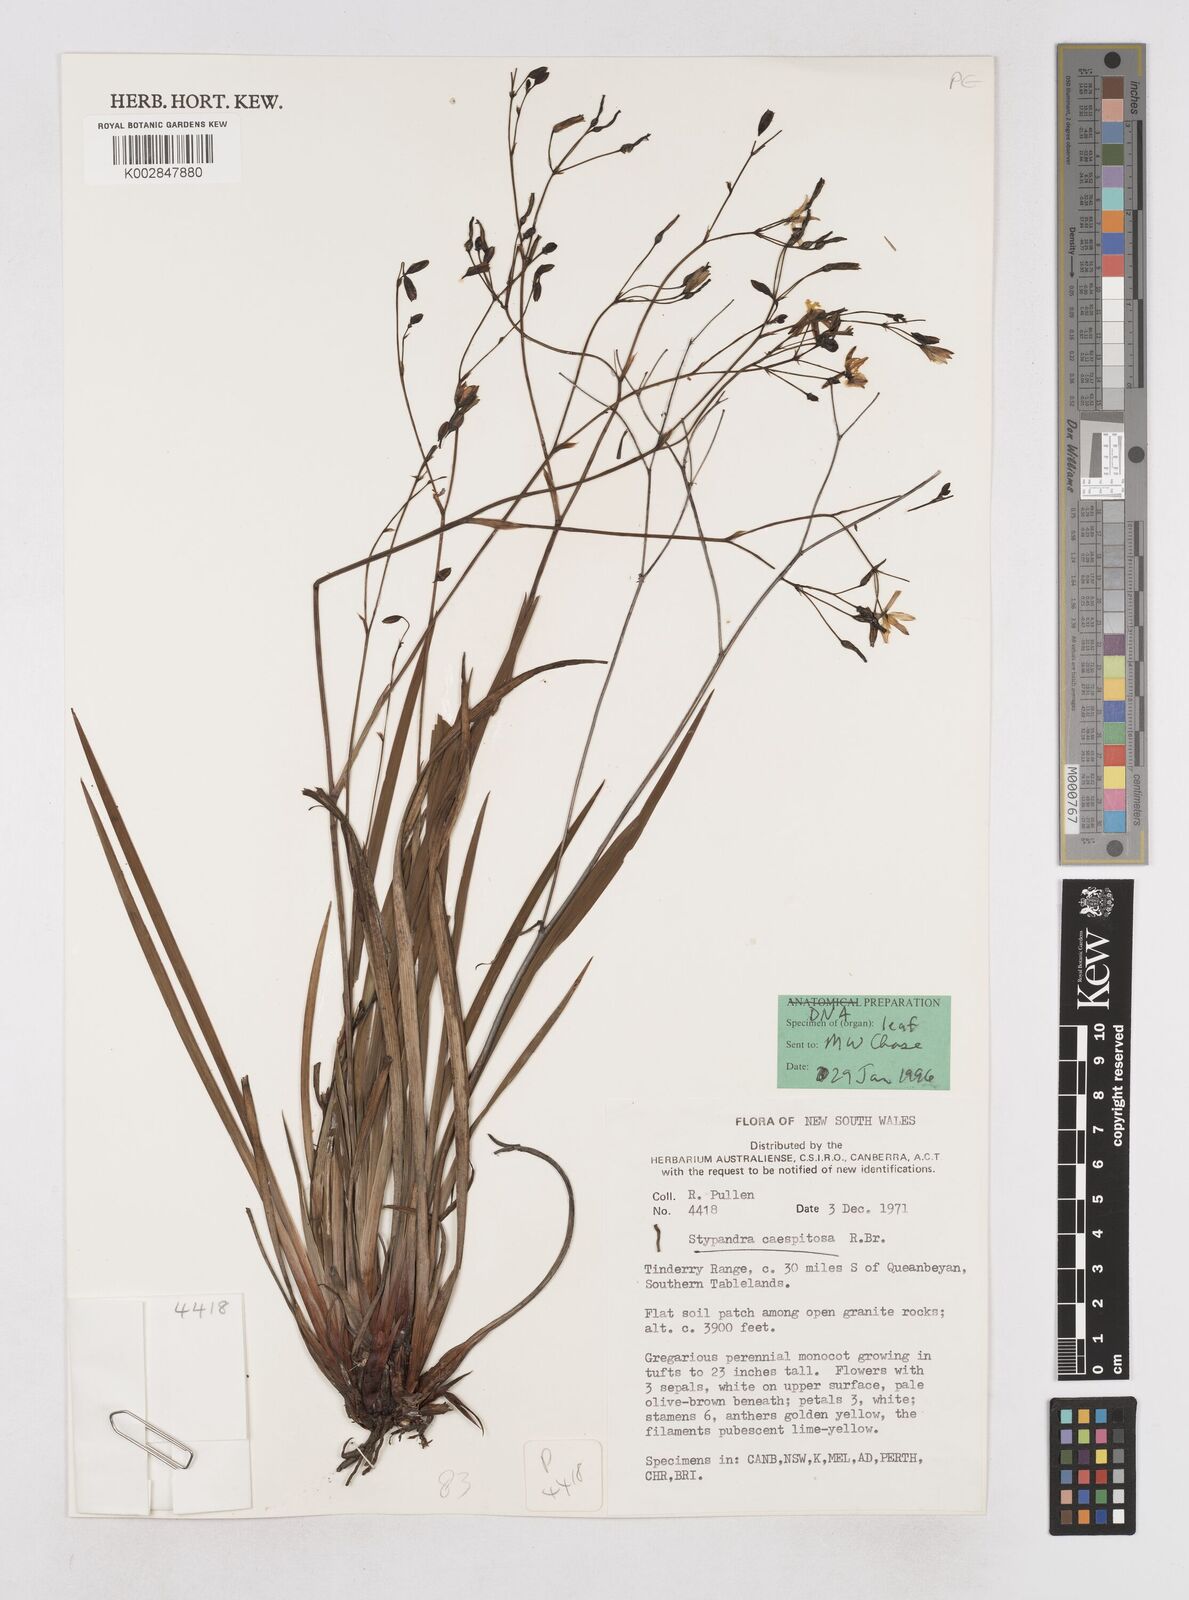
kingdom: Plantae
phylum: Tracheophyta
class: Liliopsida
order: Asparagales
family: Asphodelaceae
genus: Thelionema
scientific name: Thelionema caespitosum
